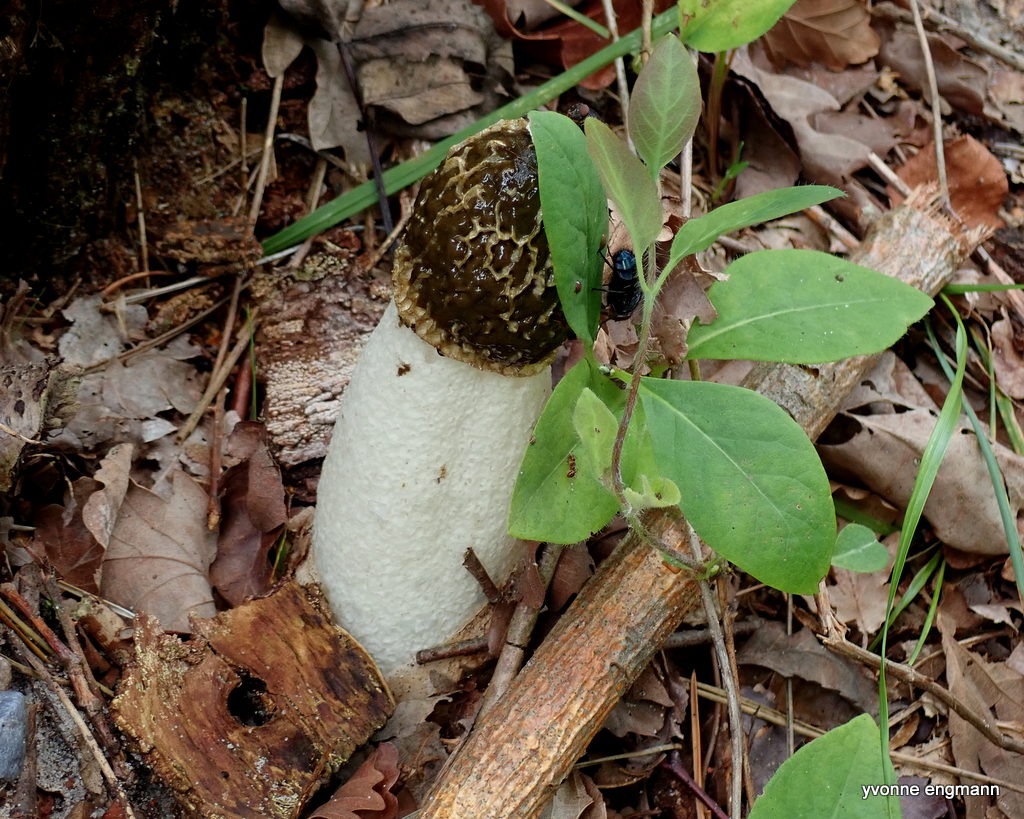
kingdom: Fungi
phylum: Basidiomycota
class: Agaricomycetes
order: Phallales
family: Phallaceae
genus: Phallus
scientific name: Phallus impudicus
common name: almindelig stinksvamp
